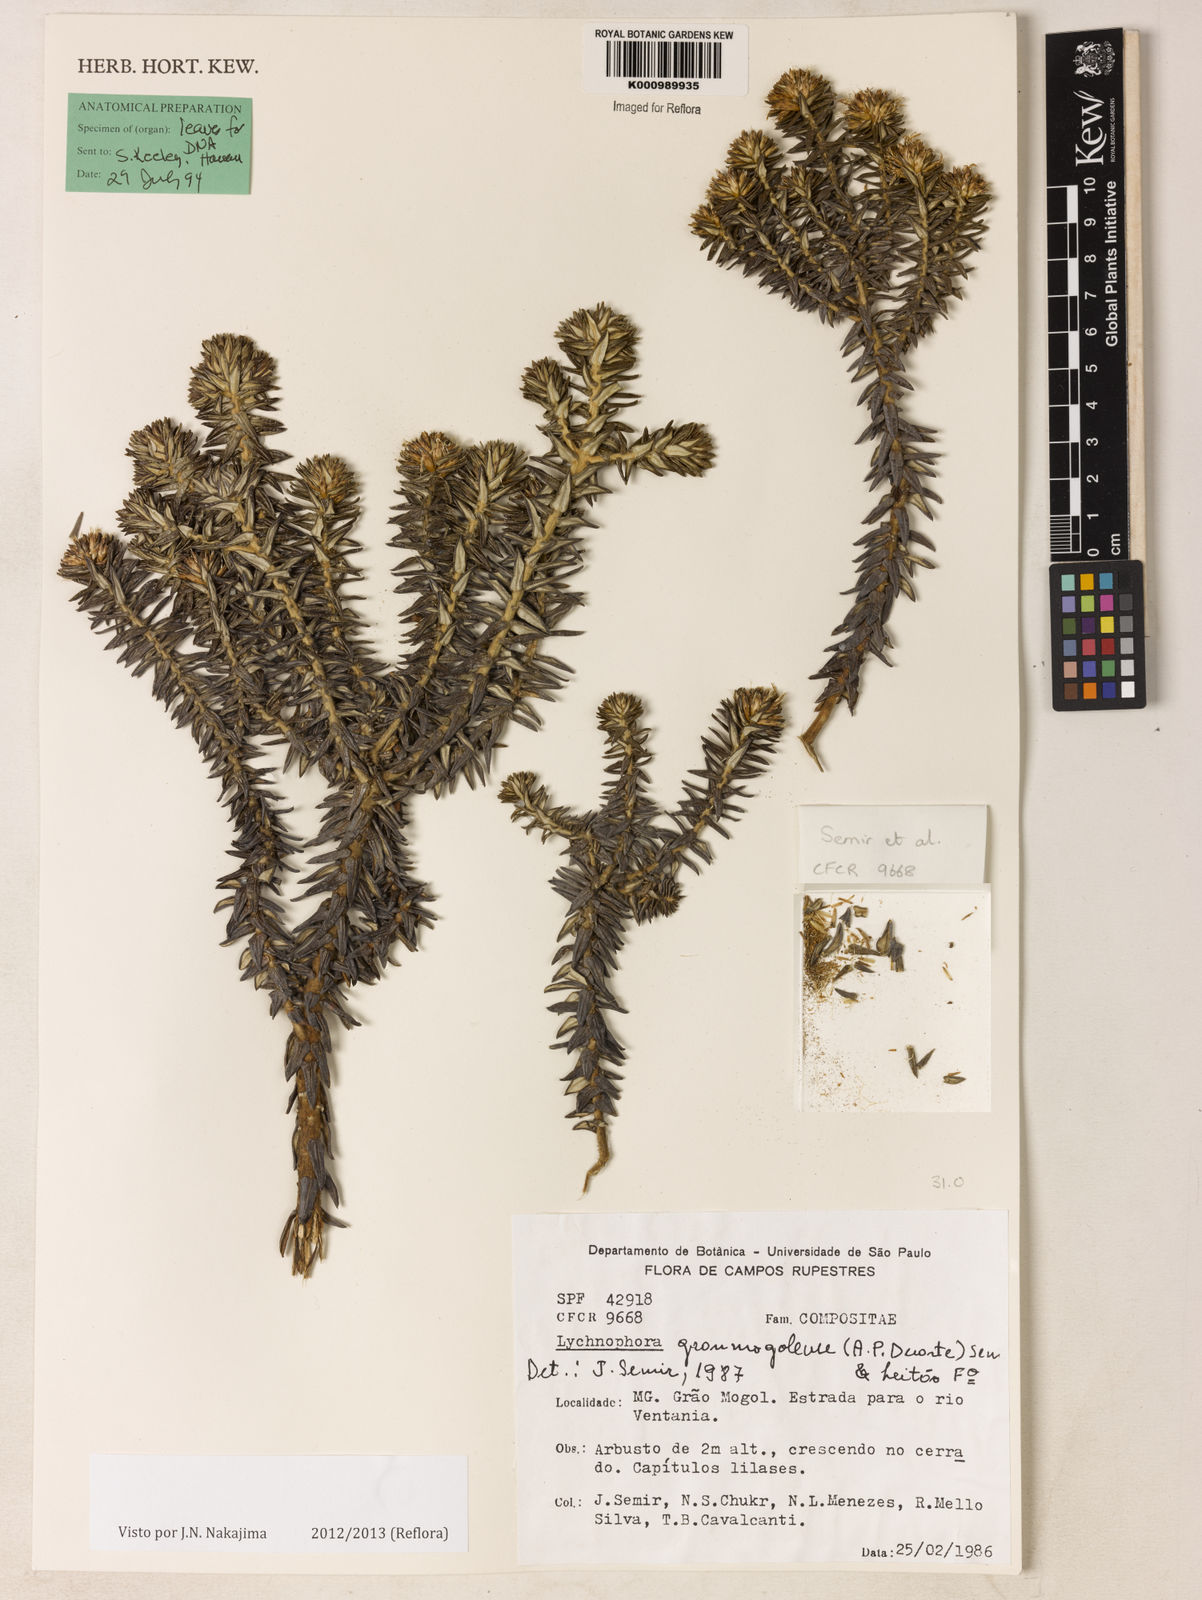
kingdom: Plantae
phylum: Tracheophyta
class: Magnoliopsida
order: Asterales
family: Asteraceae
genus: Lychnophora
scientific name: Lychnophora granmogolensis
